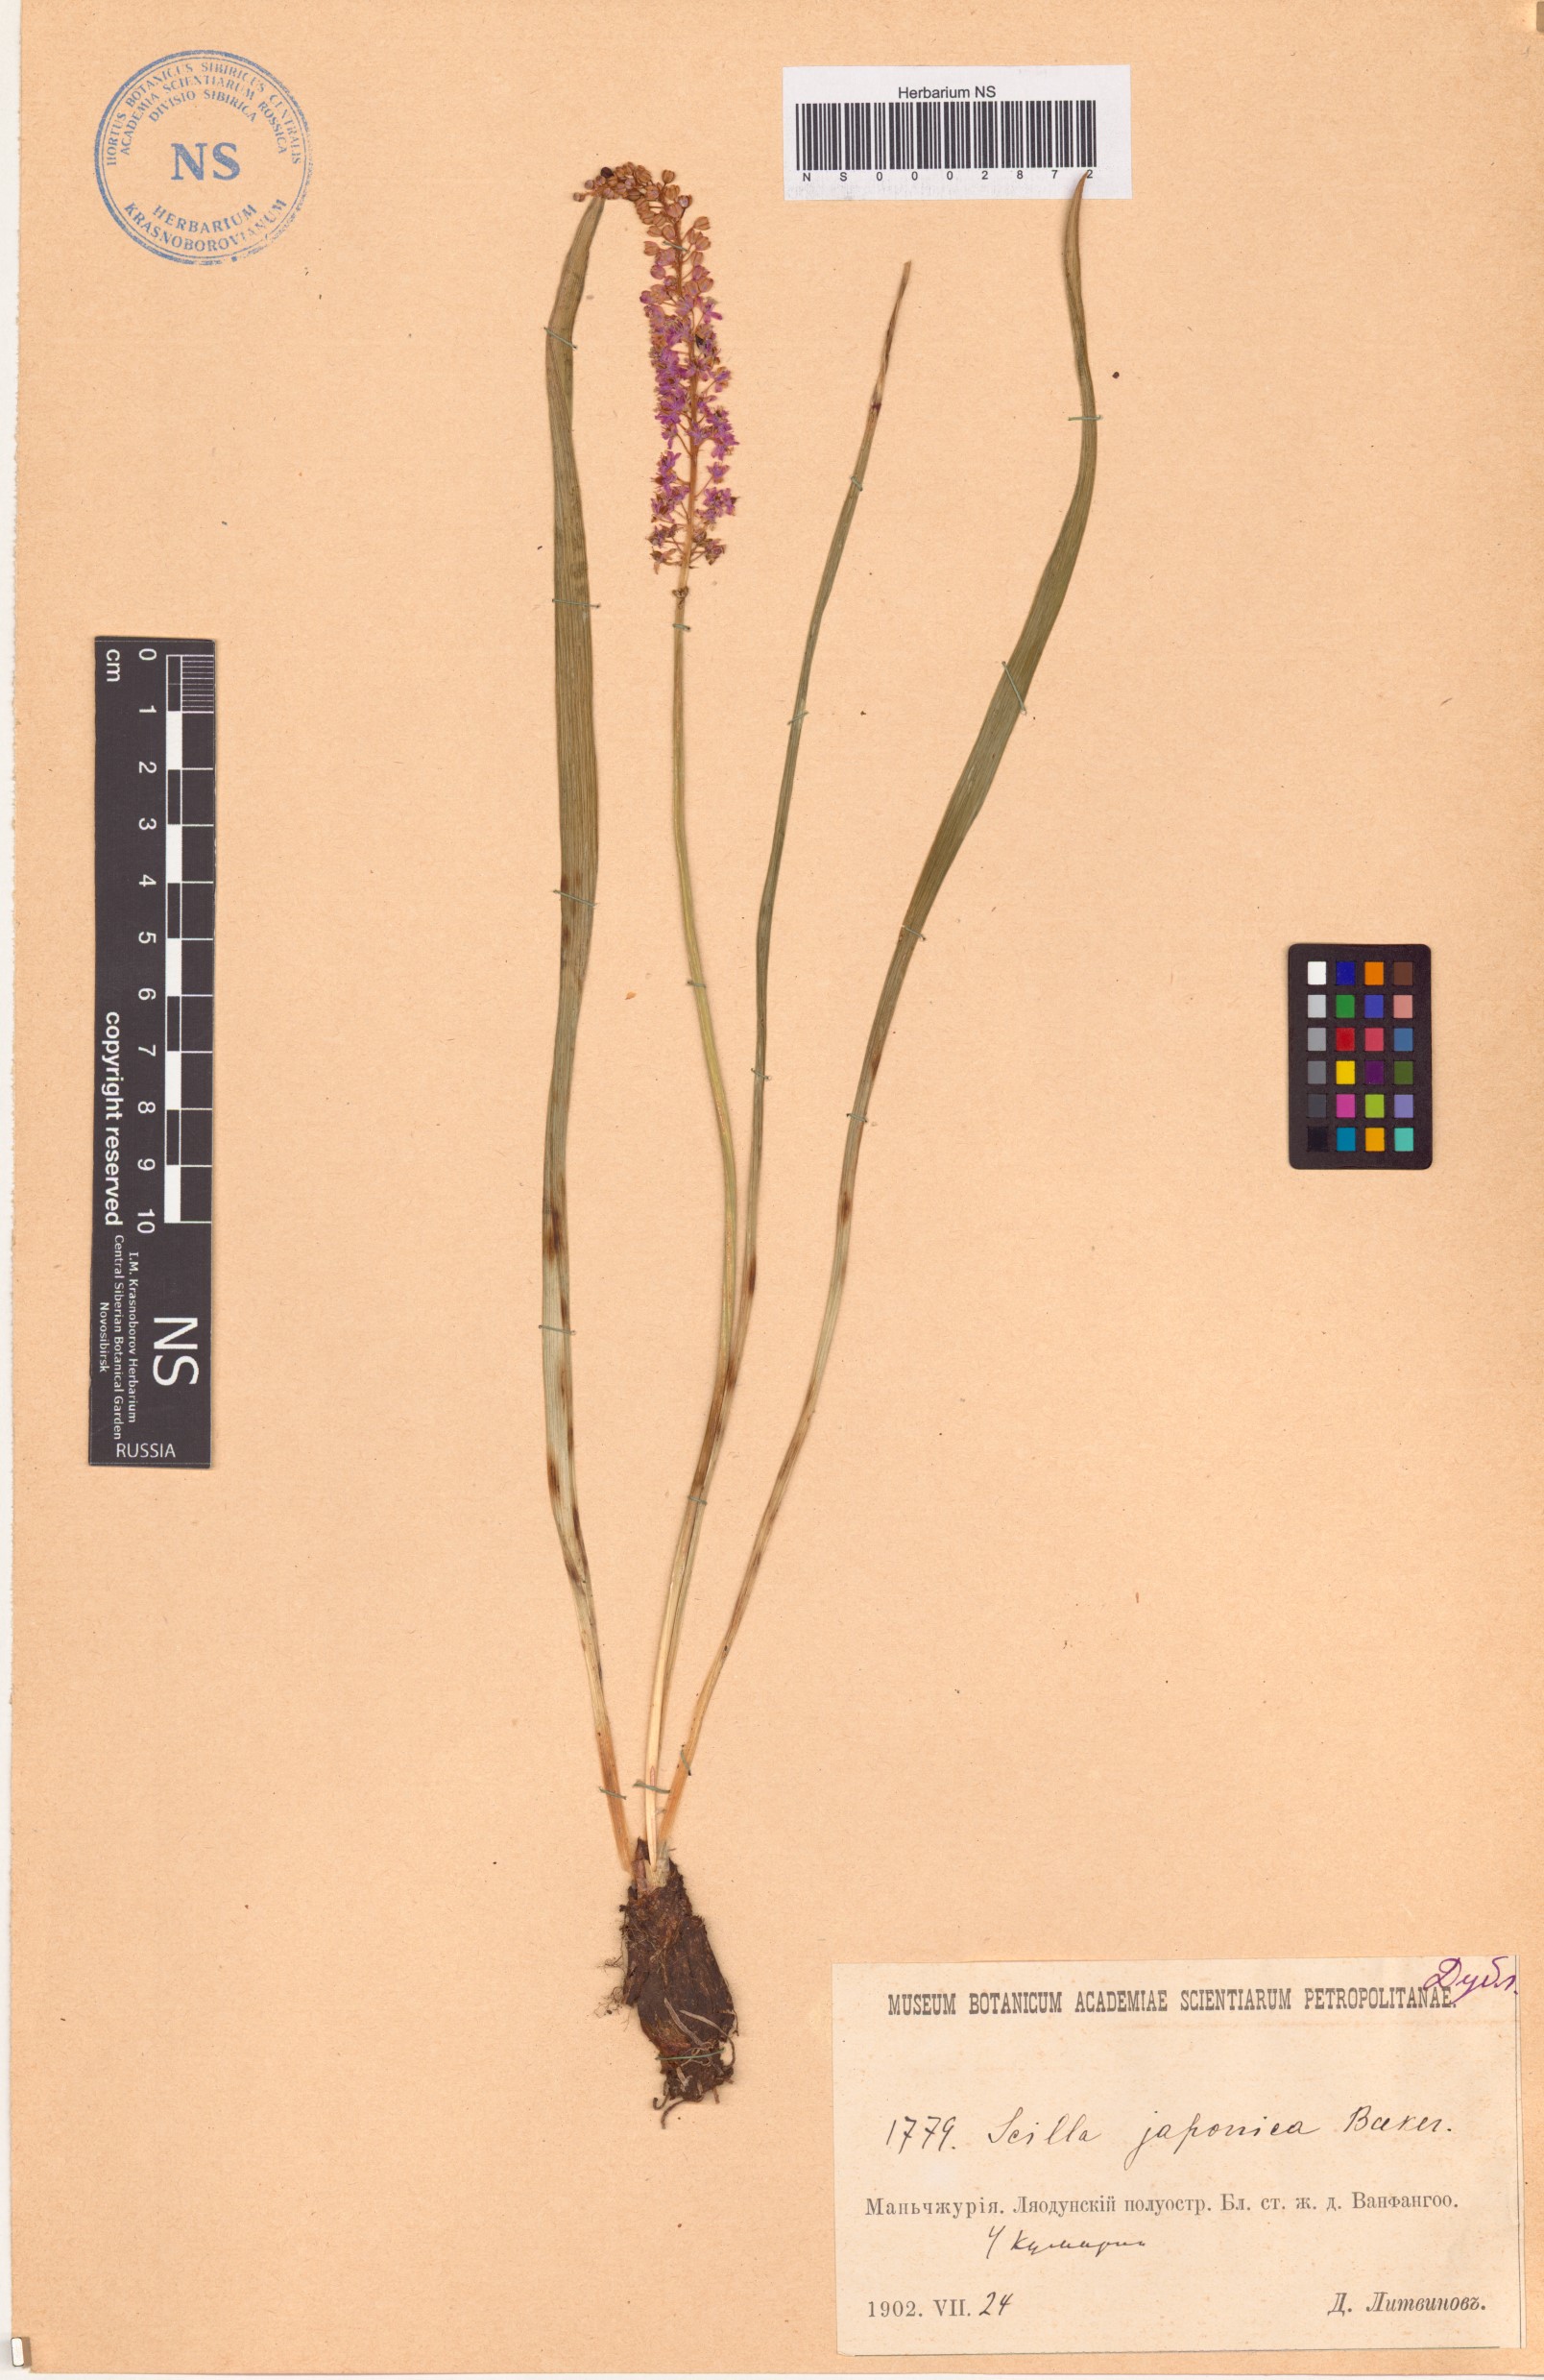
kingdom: Plantae
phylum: Tracheophyta
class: Liliopsida
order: Asparagales
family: Asparagaceae
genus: Barnardia
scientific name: Barnardia japonica
